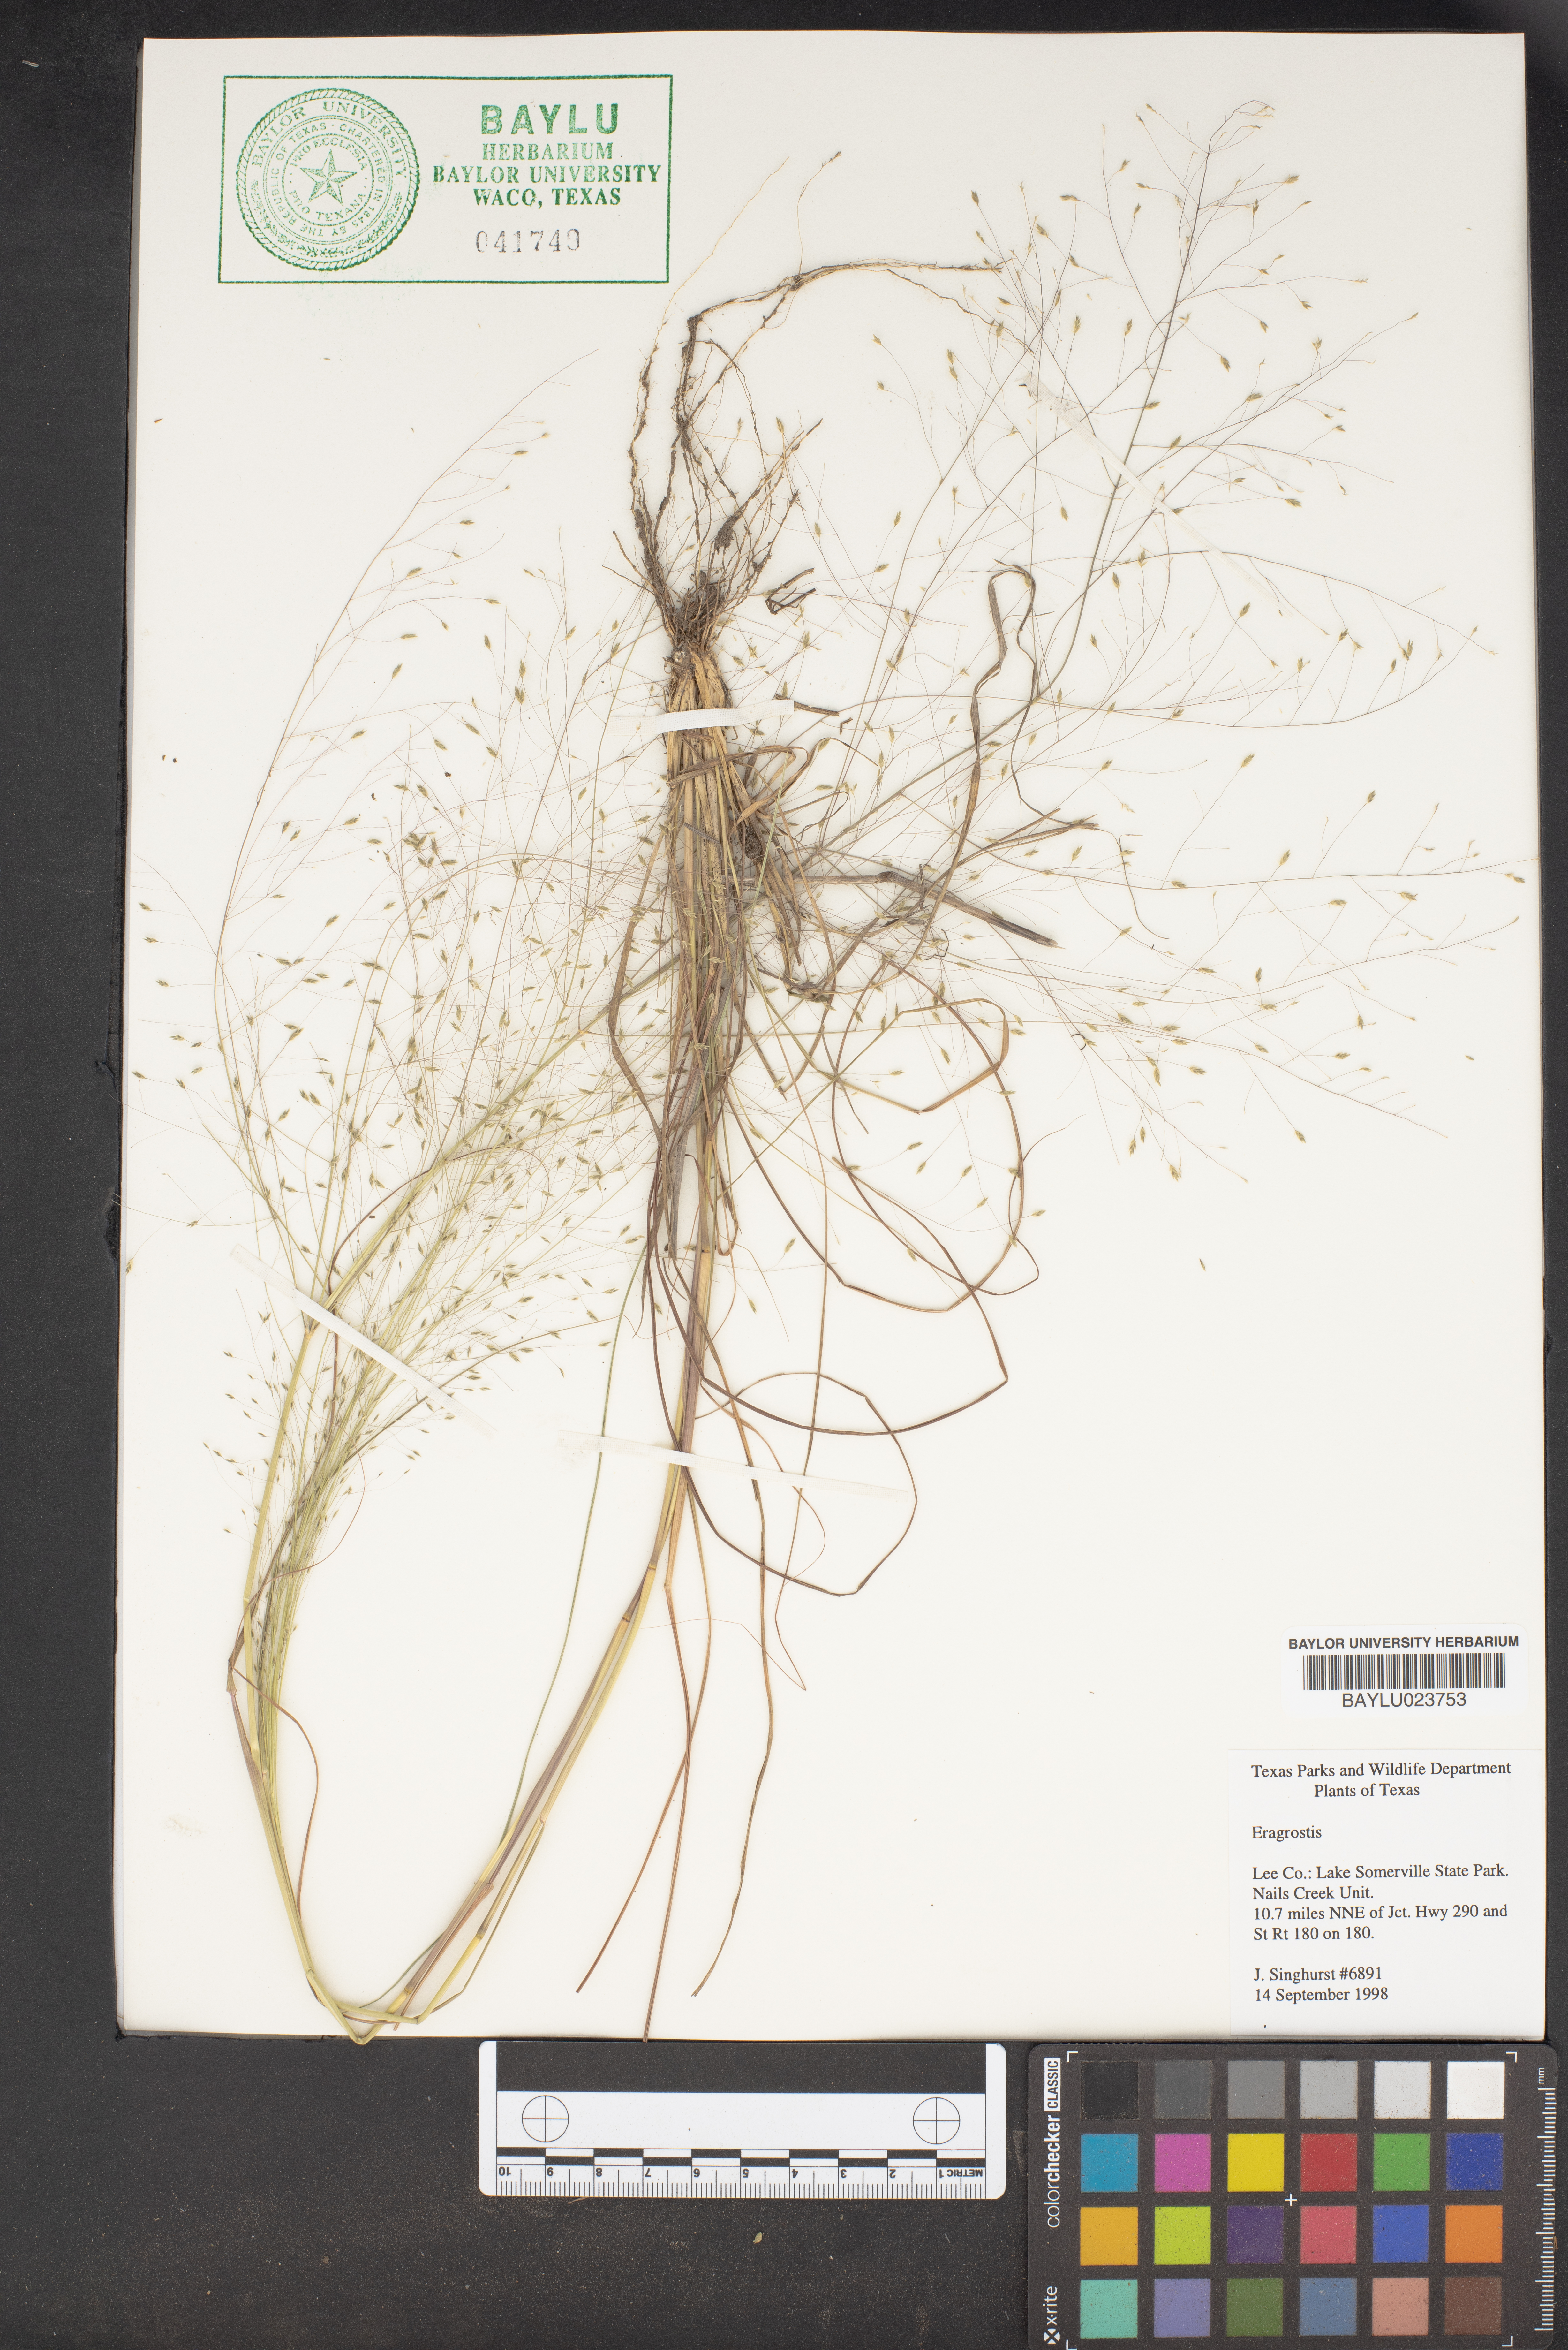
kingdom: Plantae
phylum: Tracheophyta
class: Liliopsida
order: Poales
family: Poaceae
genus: Eragrostis
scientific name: Eragrostis
